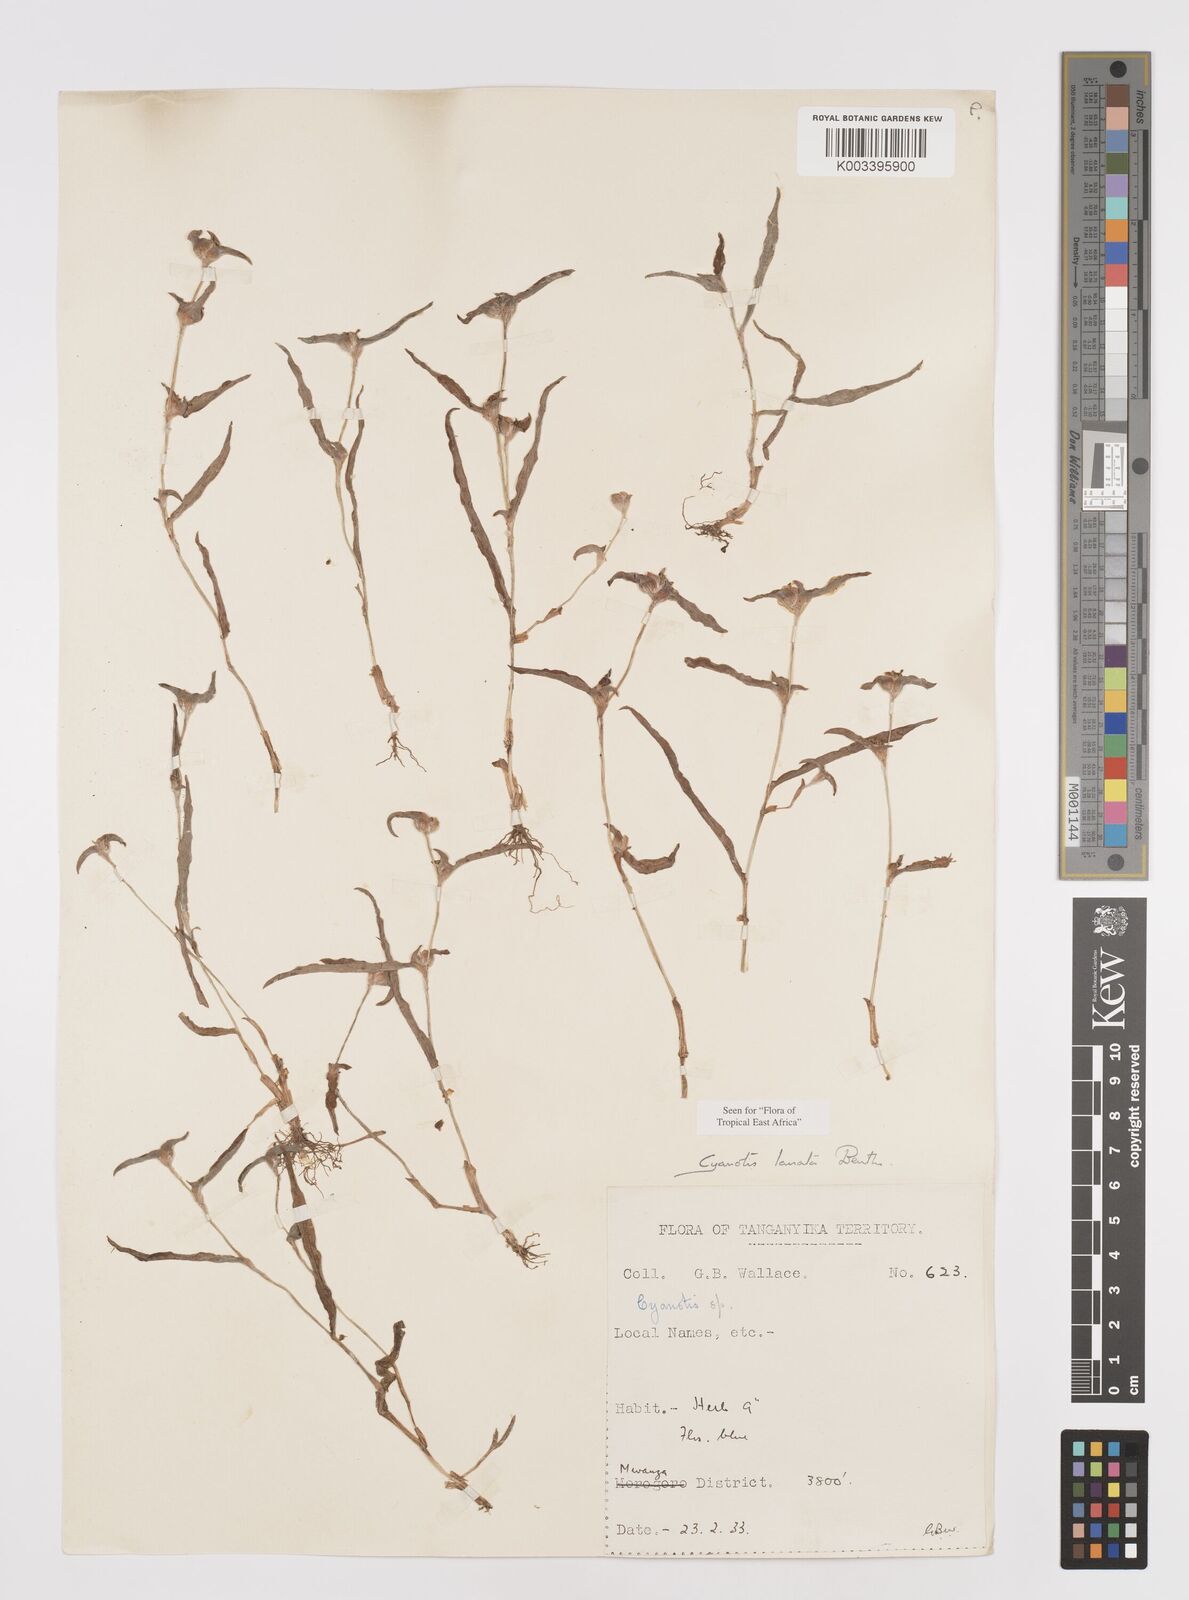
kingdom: Plantae
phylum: Tracheophyta
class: Liliopsida
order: Commelinales
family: Commelinaceae
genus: Cyanotis
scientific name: Cyanotis lanata
